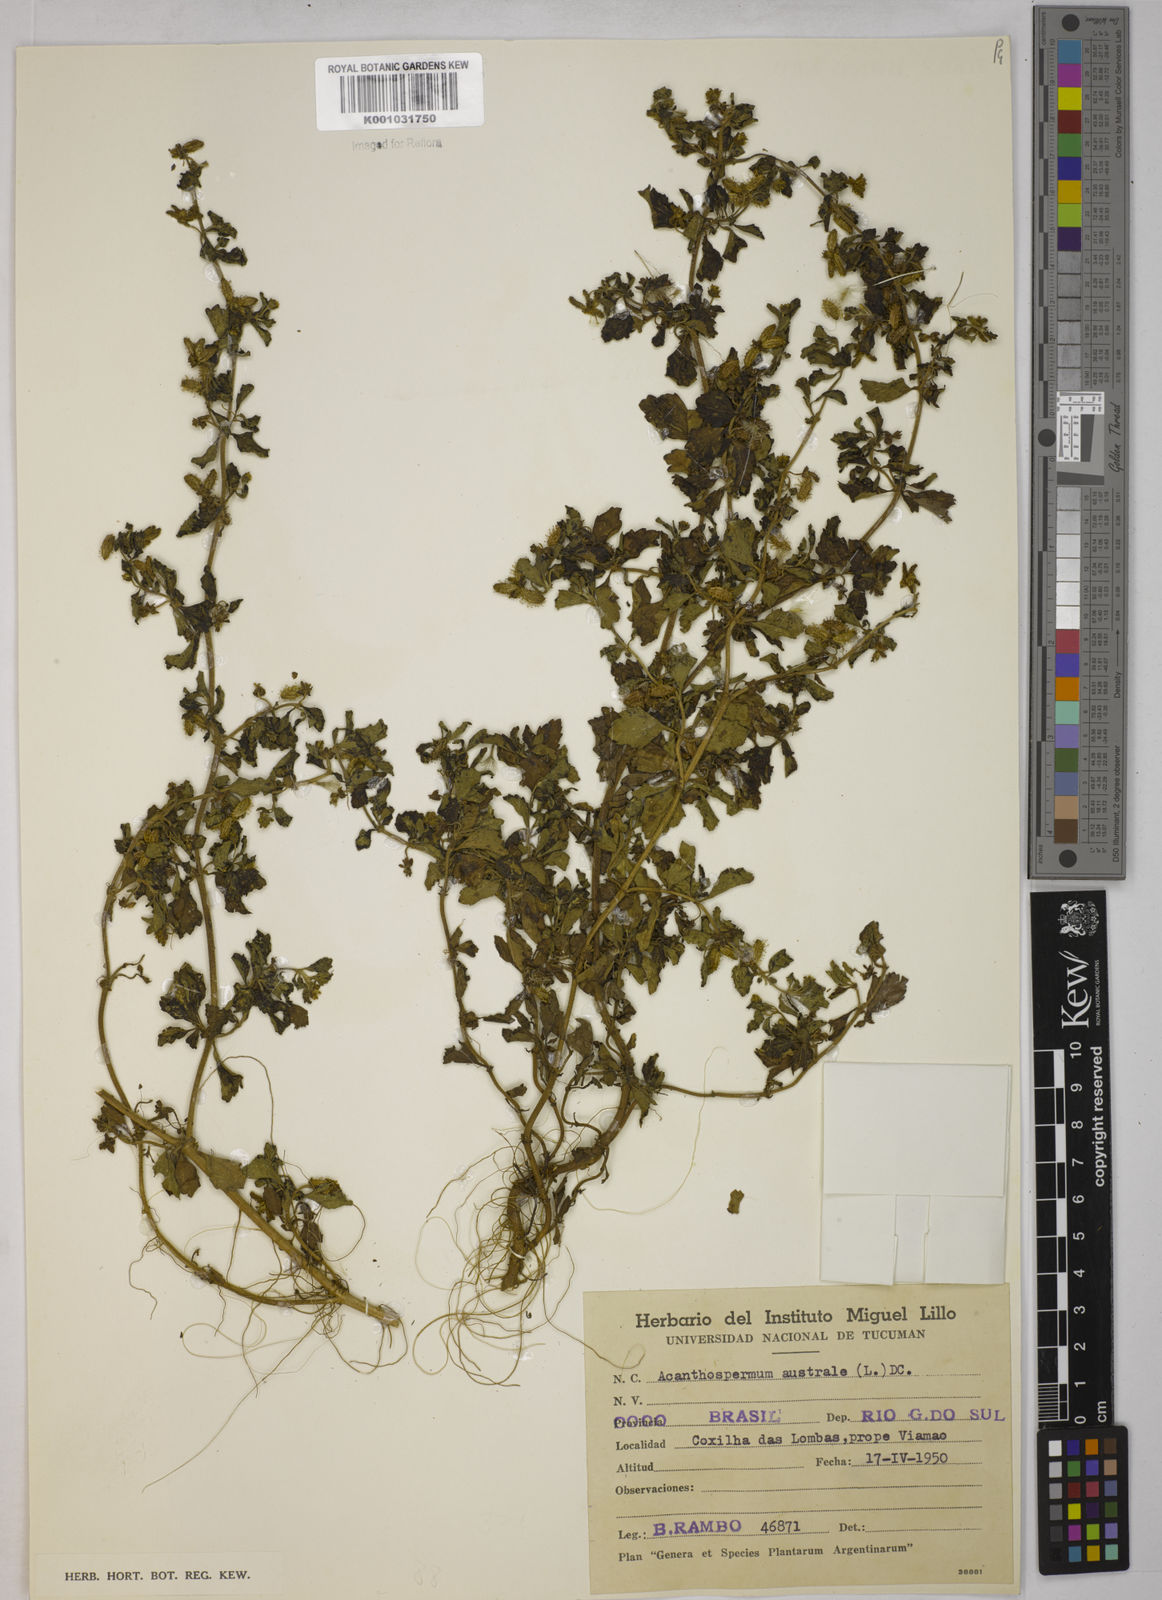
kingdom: Plantae
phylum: Tracheophyta
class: Magnoliopsida
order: Asterales
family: Asteraceae
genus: Acanthospermum
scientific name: Acanthospermum australe
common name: Paraguayan starbur
